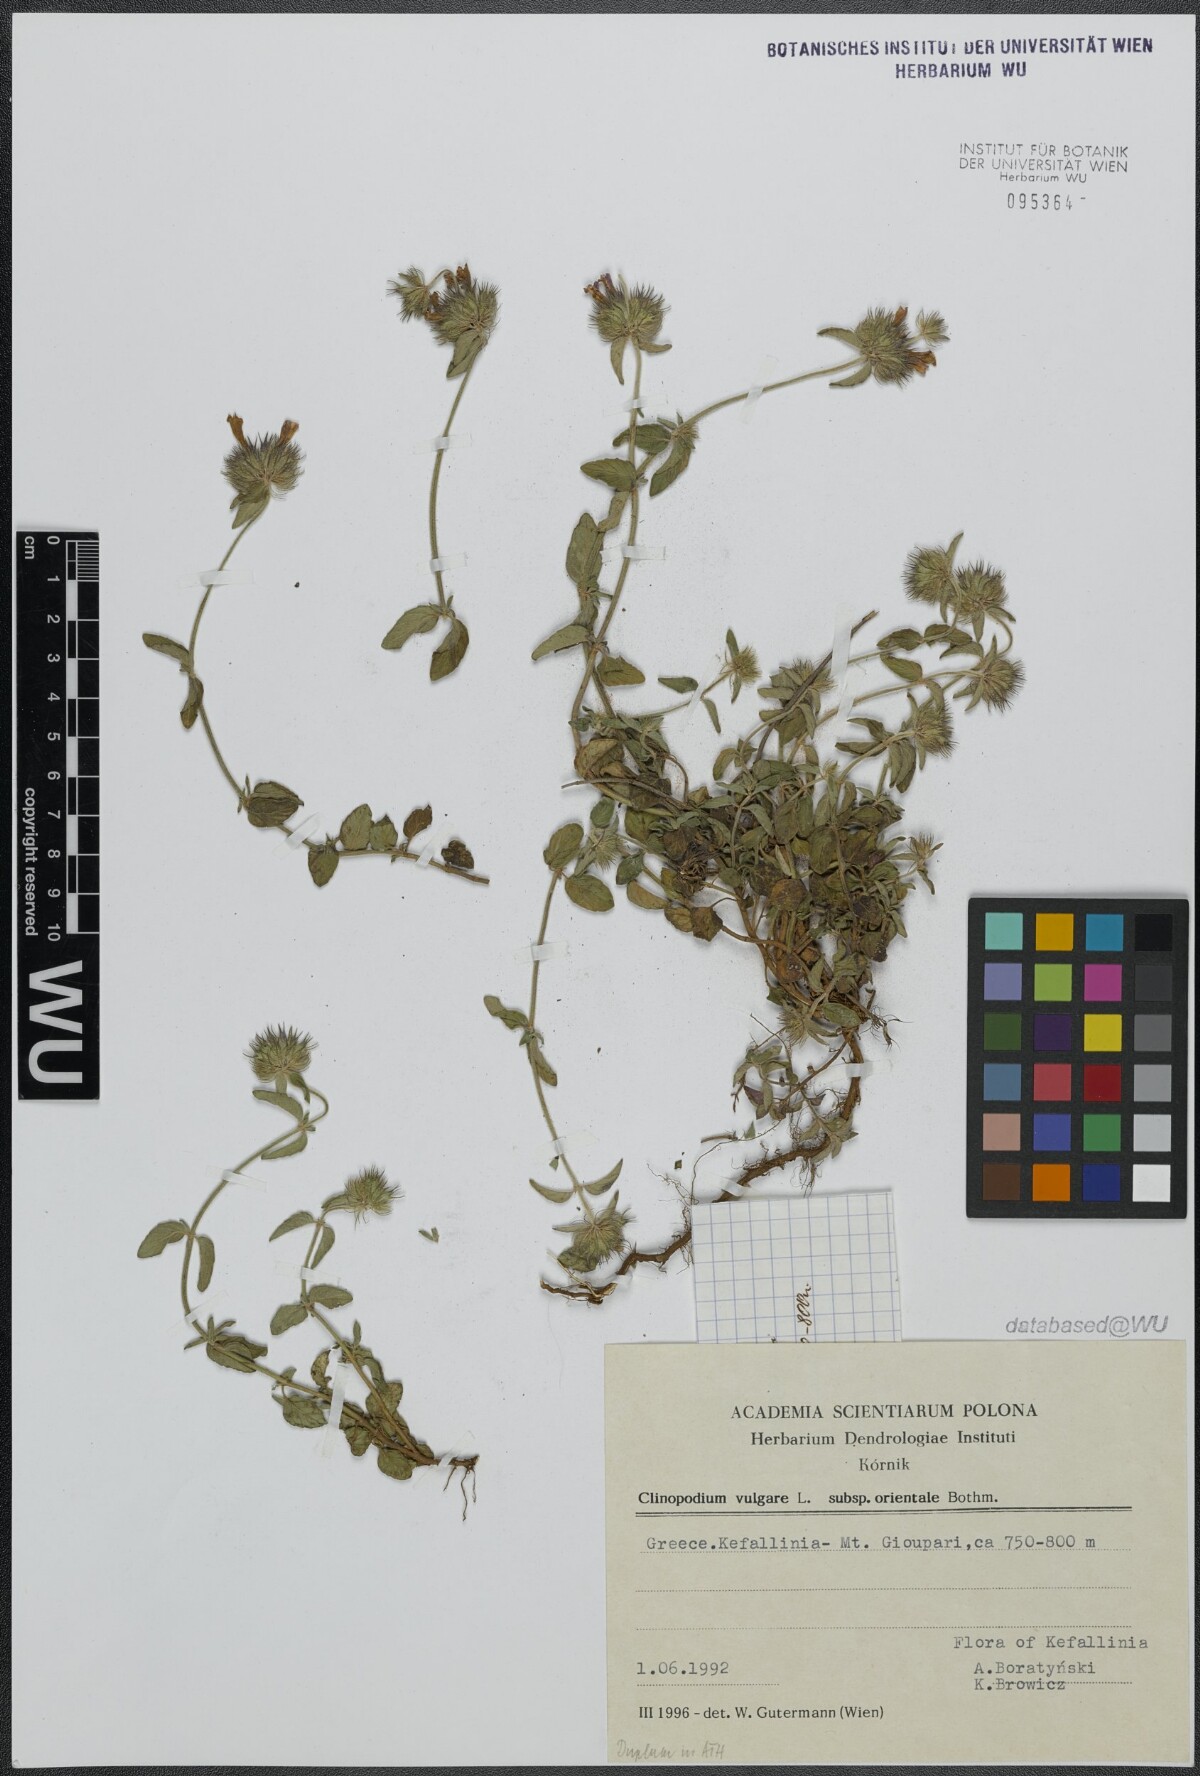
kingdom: Plantae
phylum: Tracheophyta
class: Magnoliopsida
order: Lamiales
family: Lamiaceae
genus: Clinopodium
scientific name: Clinopodium vulgare
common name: Wild basil
